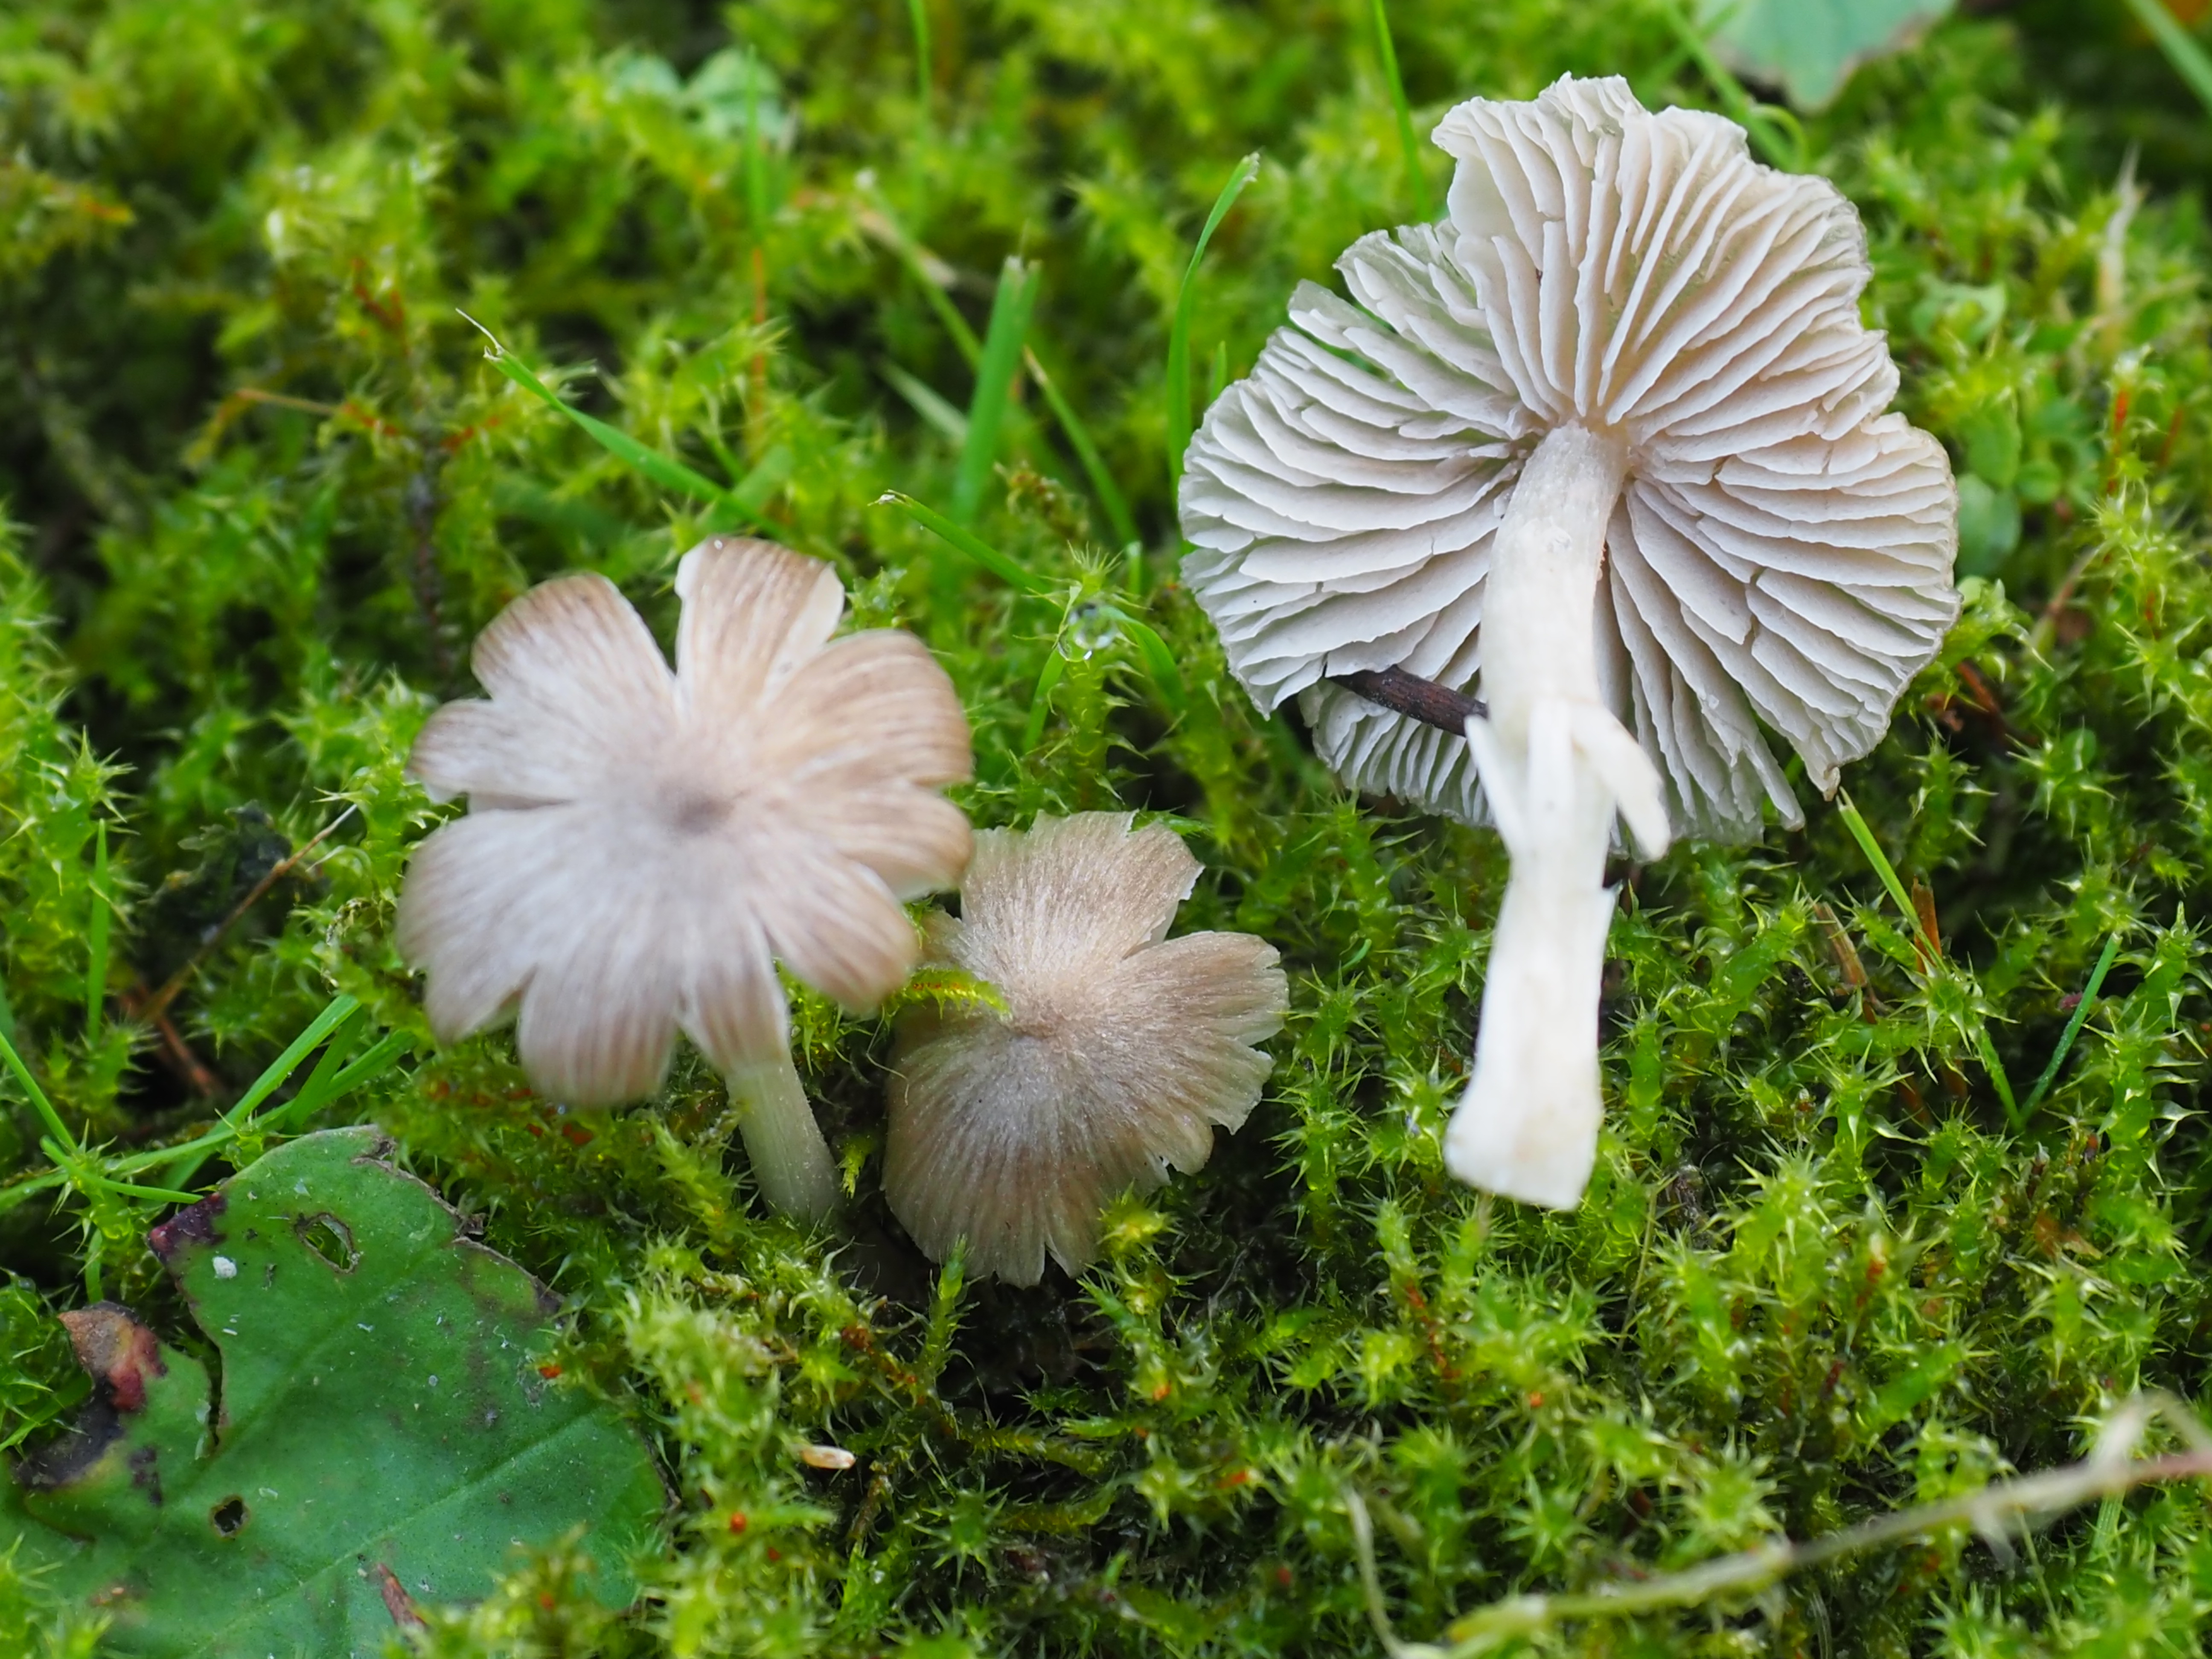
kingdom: Fungi
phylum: Basidiomycota
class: Agaricomycetes
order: Agaricales
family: Entolomataceae
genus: Entoloma
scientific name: Entoloma
